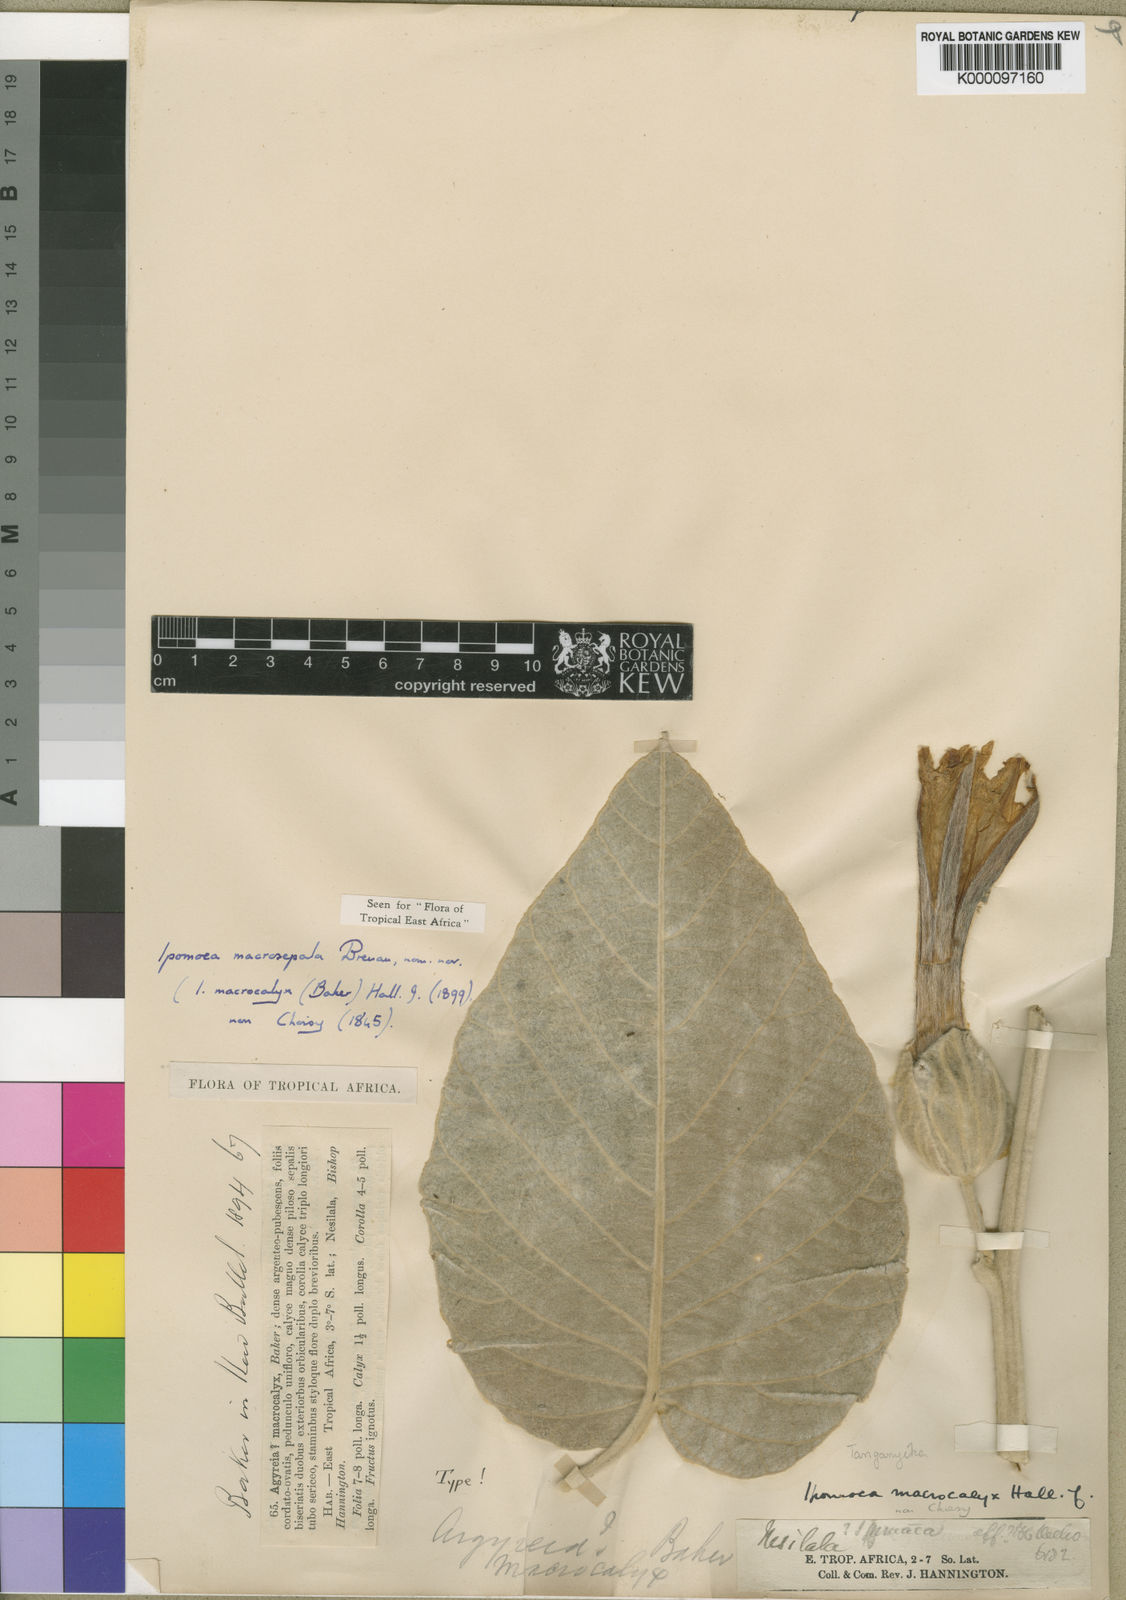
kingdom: Plantae
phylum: Tracheophyta
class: Magnoliopsida
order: Solanales
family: Convolvulaceae
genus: Ipomoea
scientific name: Ipomoea macrosepala
